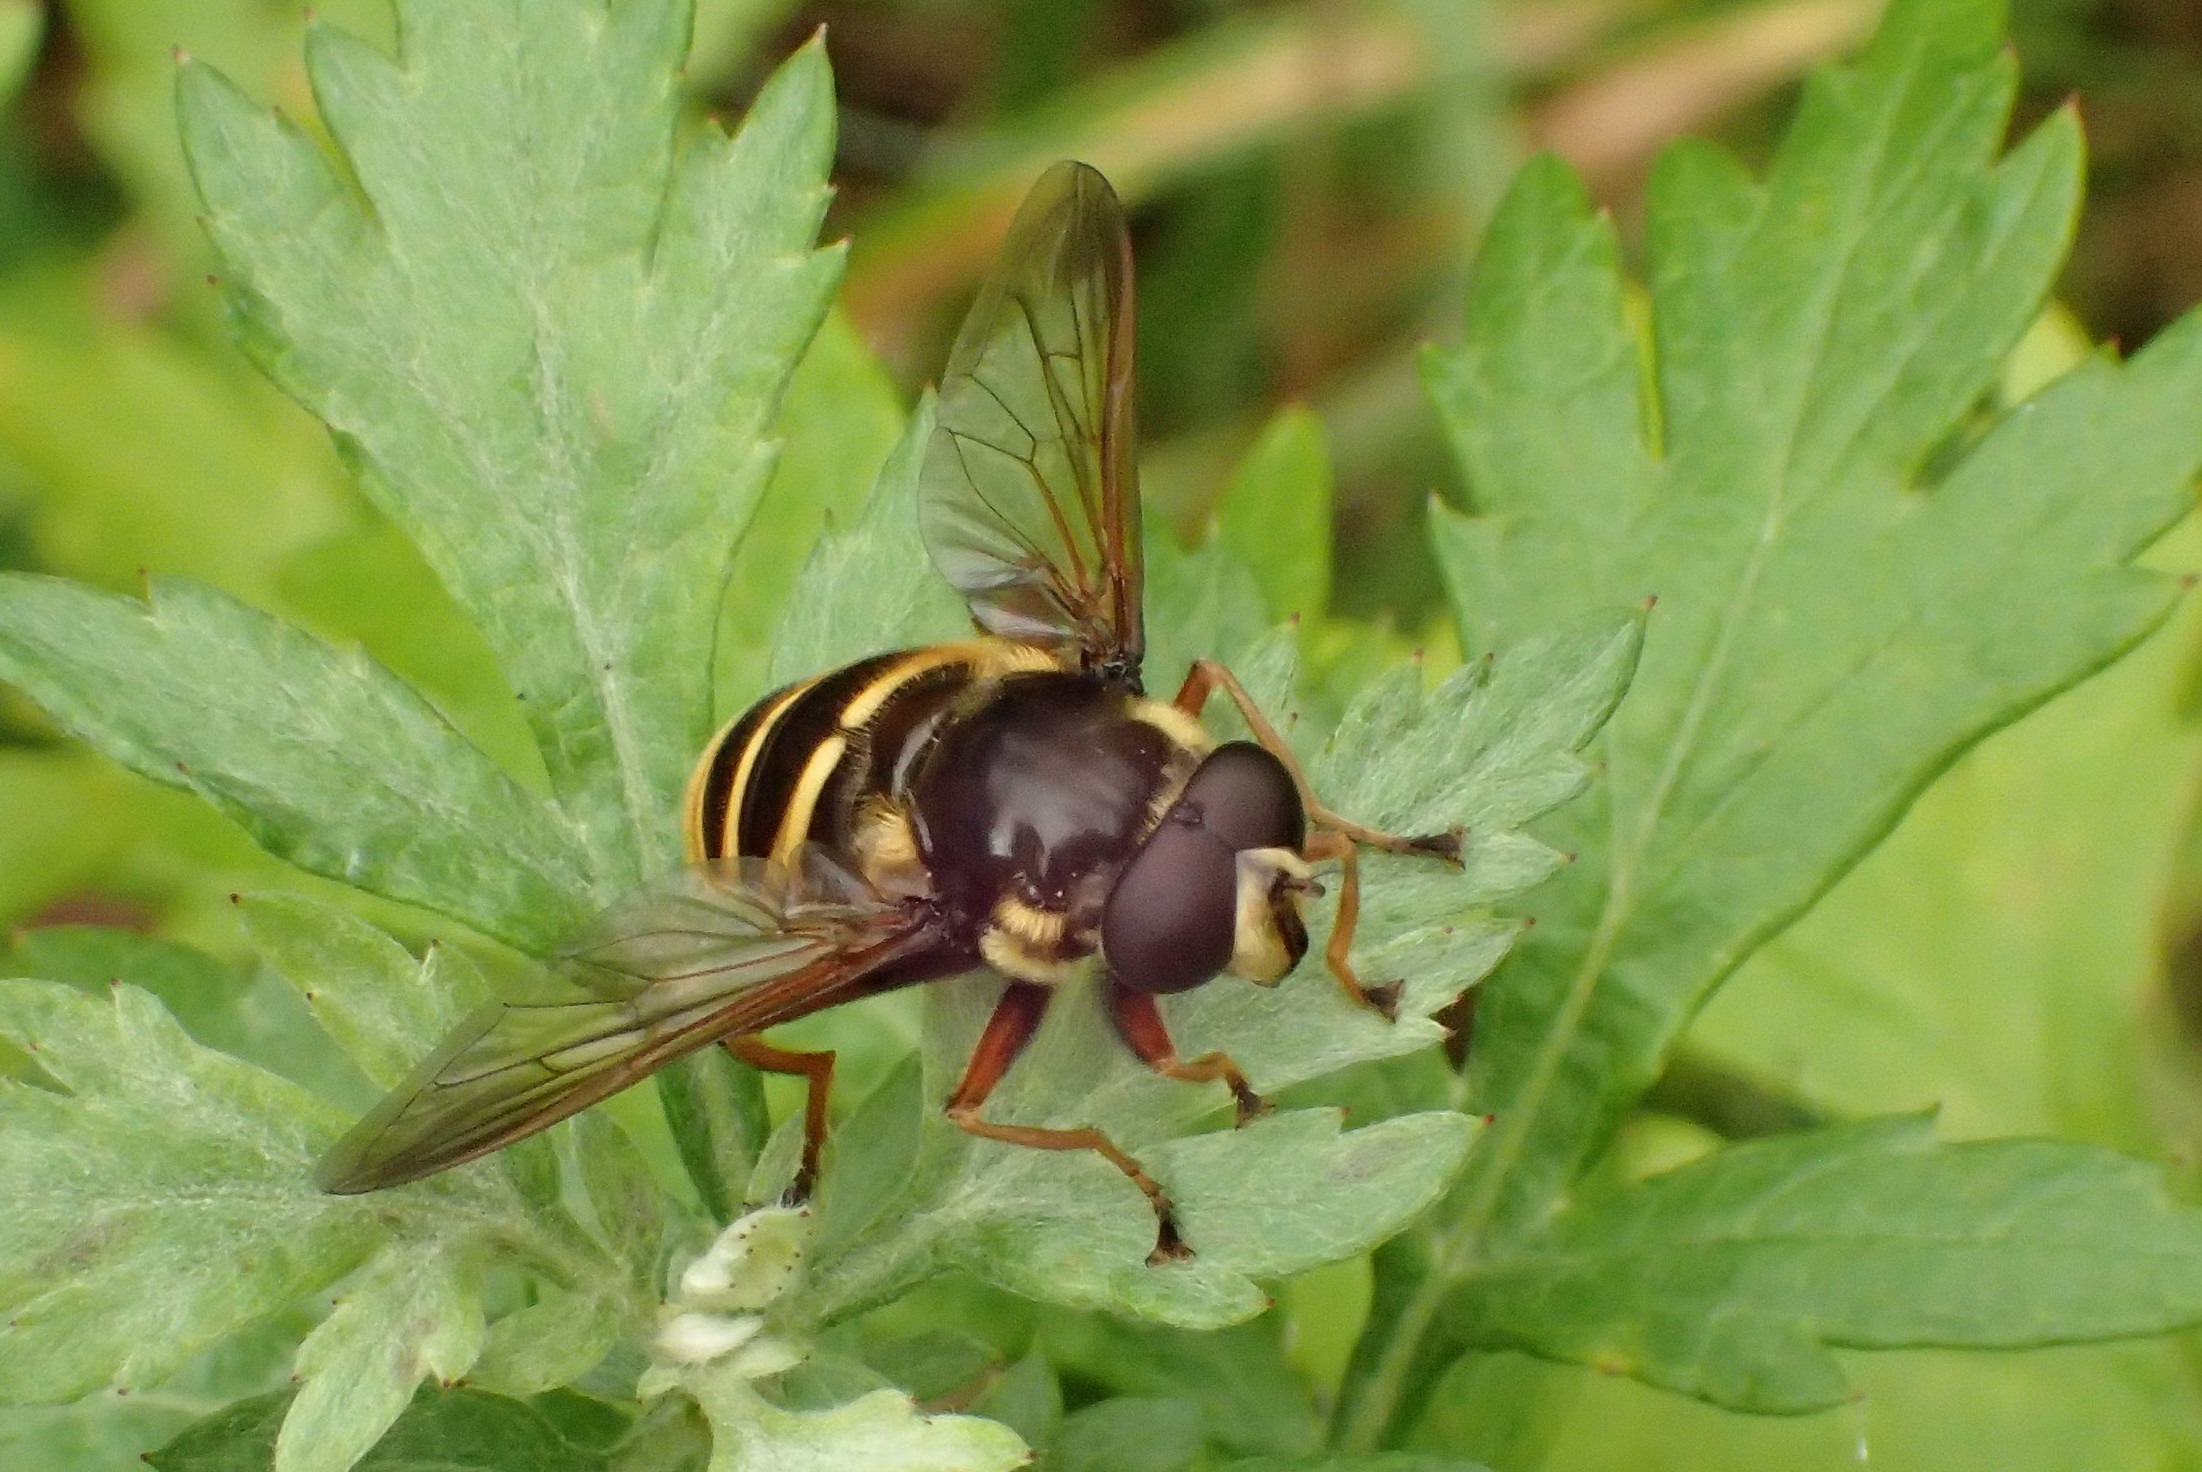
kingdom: Animalia
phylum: Arthropoda
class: Insecta
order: Diptera
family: Syrphidae
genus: Sericomyia
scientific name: Sericomyia silentis
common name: Tørve-silkesvirreflue
